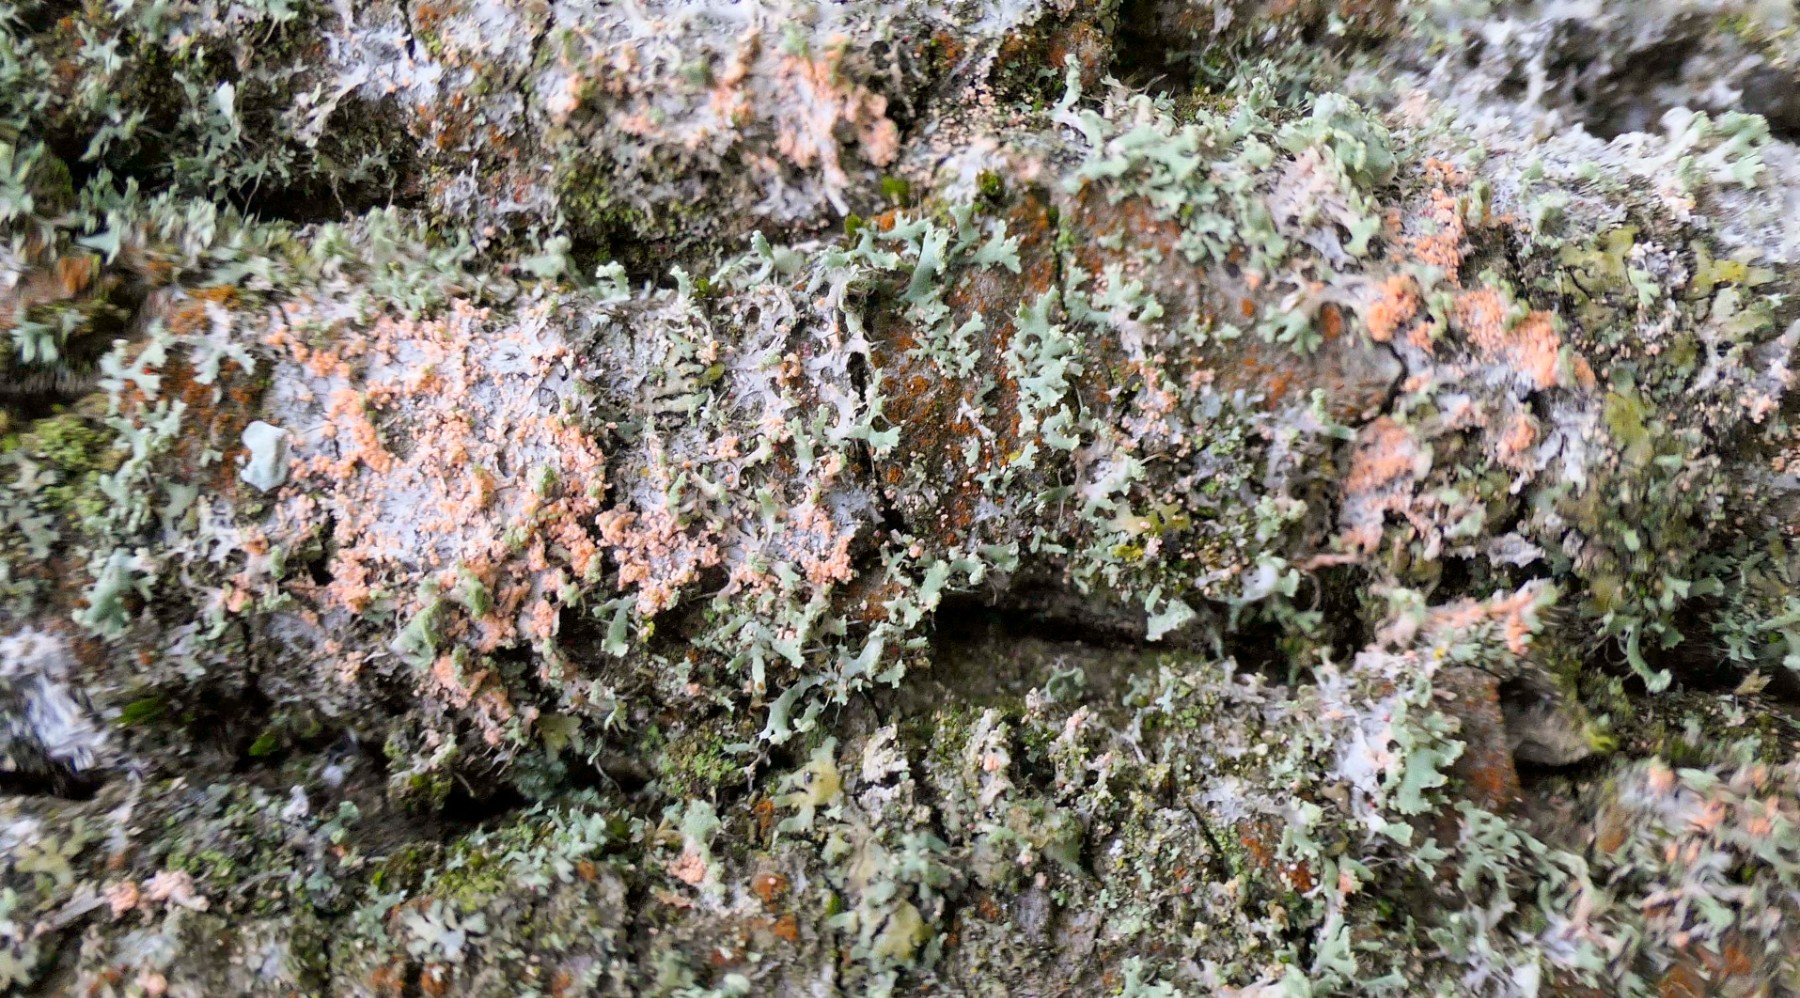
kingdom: Fungi
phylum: Basidiomycota
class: Agaricomycetes
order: Corticiales
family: Corticiaceae
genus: Erythricium
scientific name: Erythricium aurantiacum
